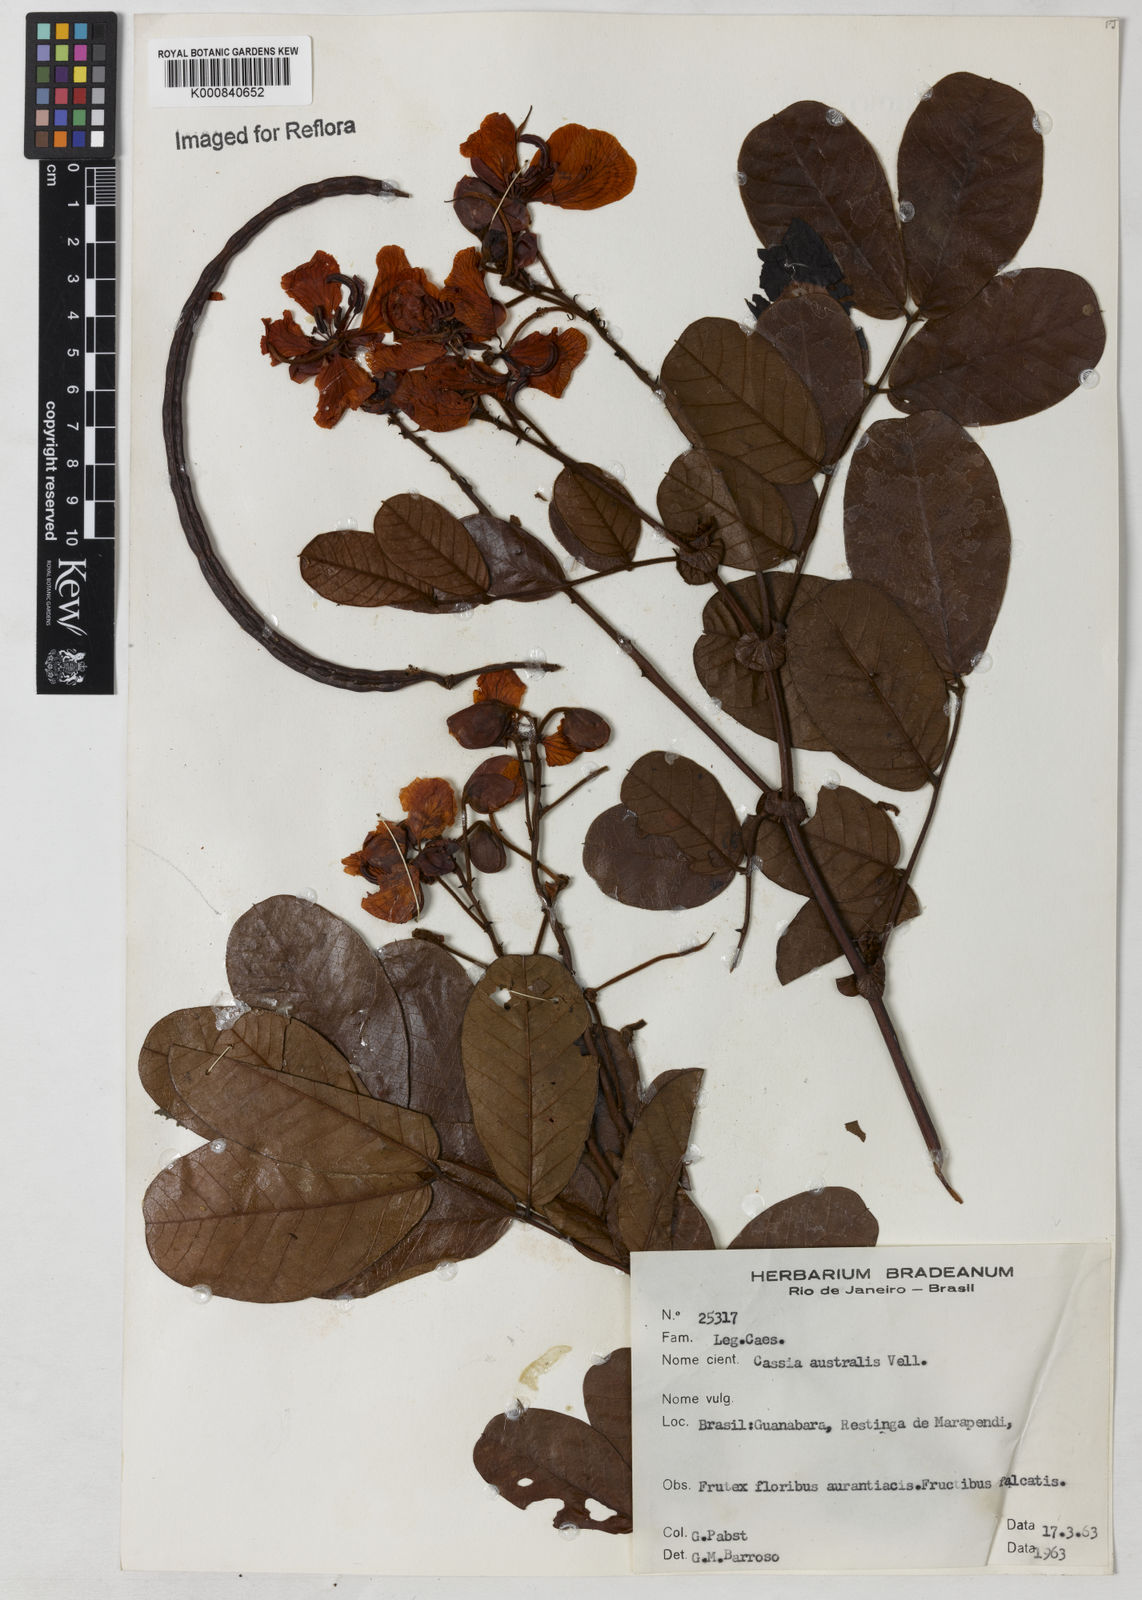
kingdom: Plantae
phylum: Tracheophyta
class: Magnoliopsida
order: Fabales
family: Fabaceae
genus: Senna
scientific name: Senna appendiculata
